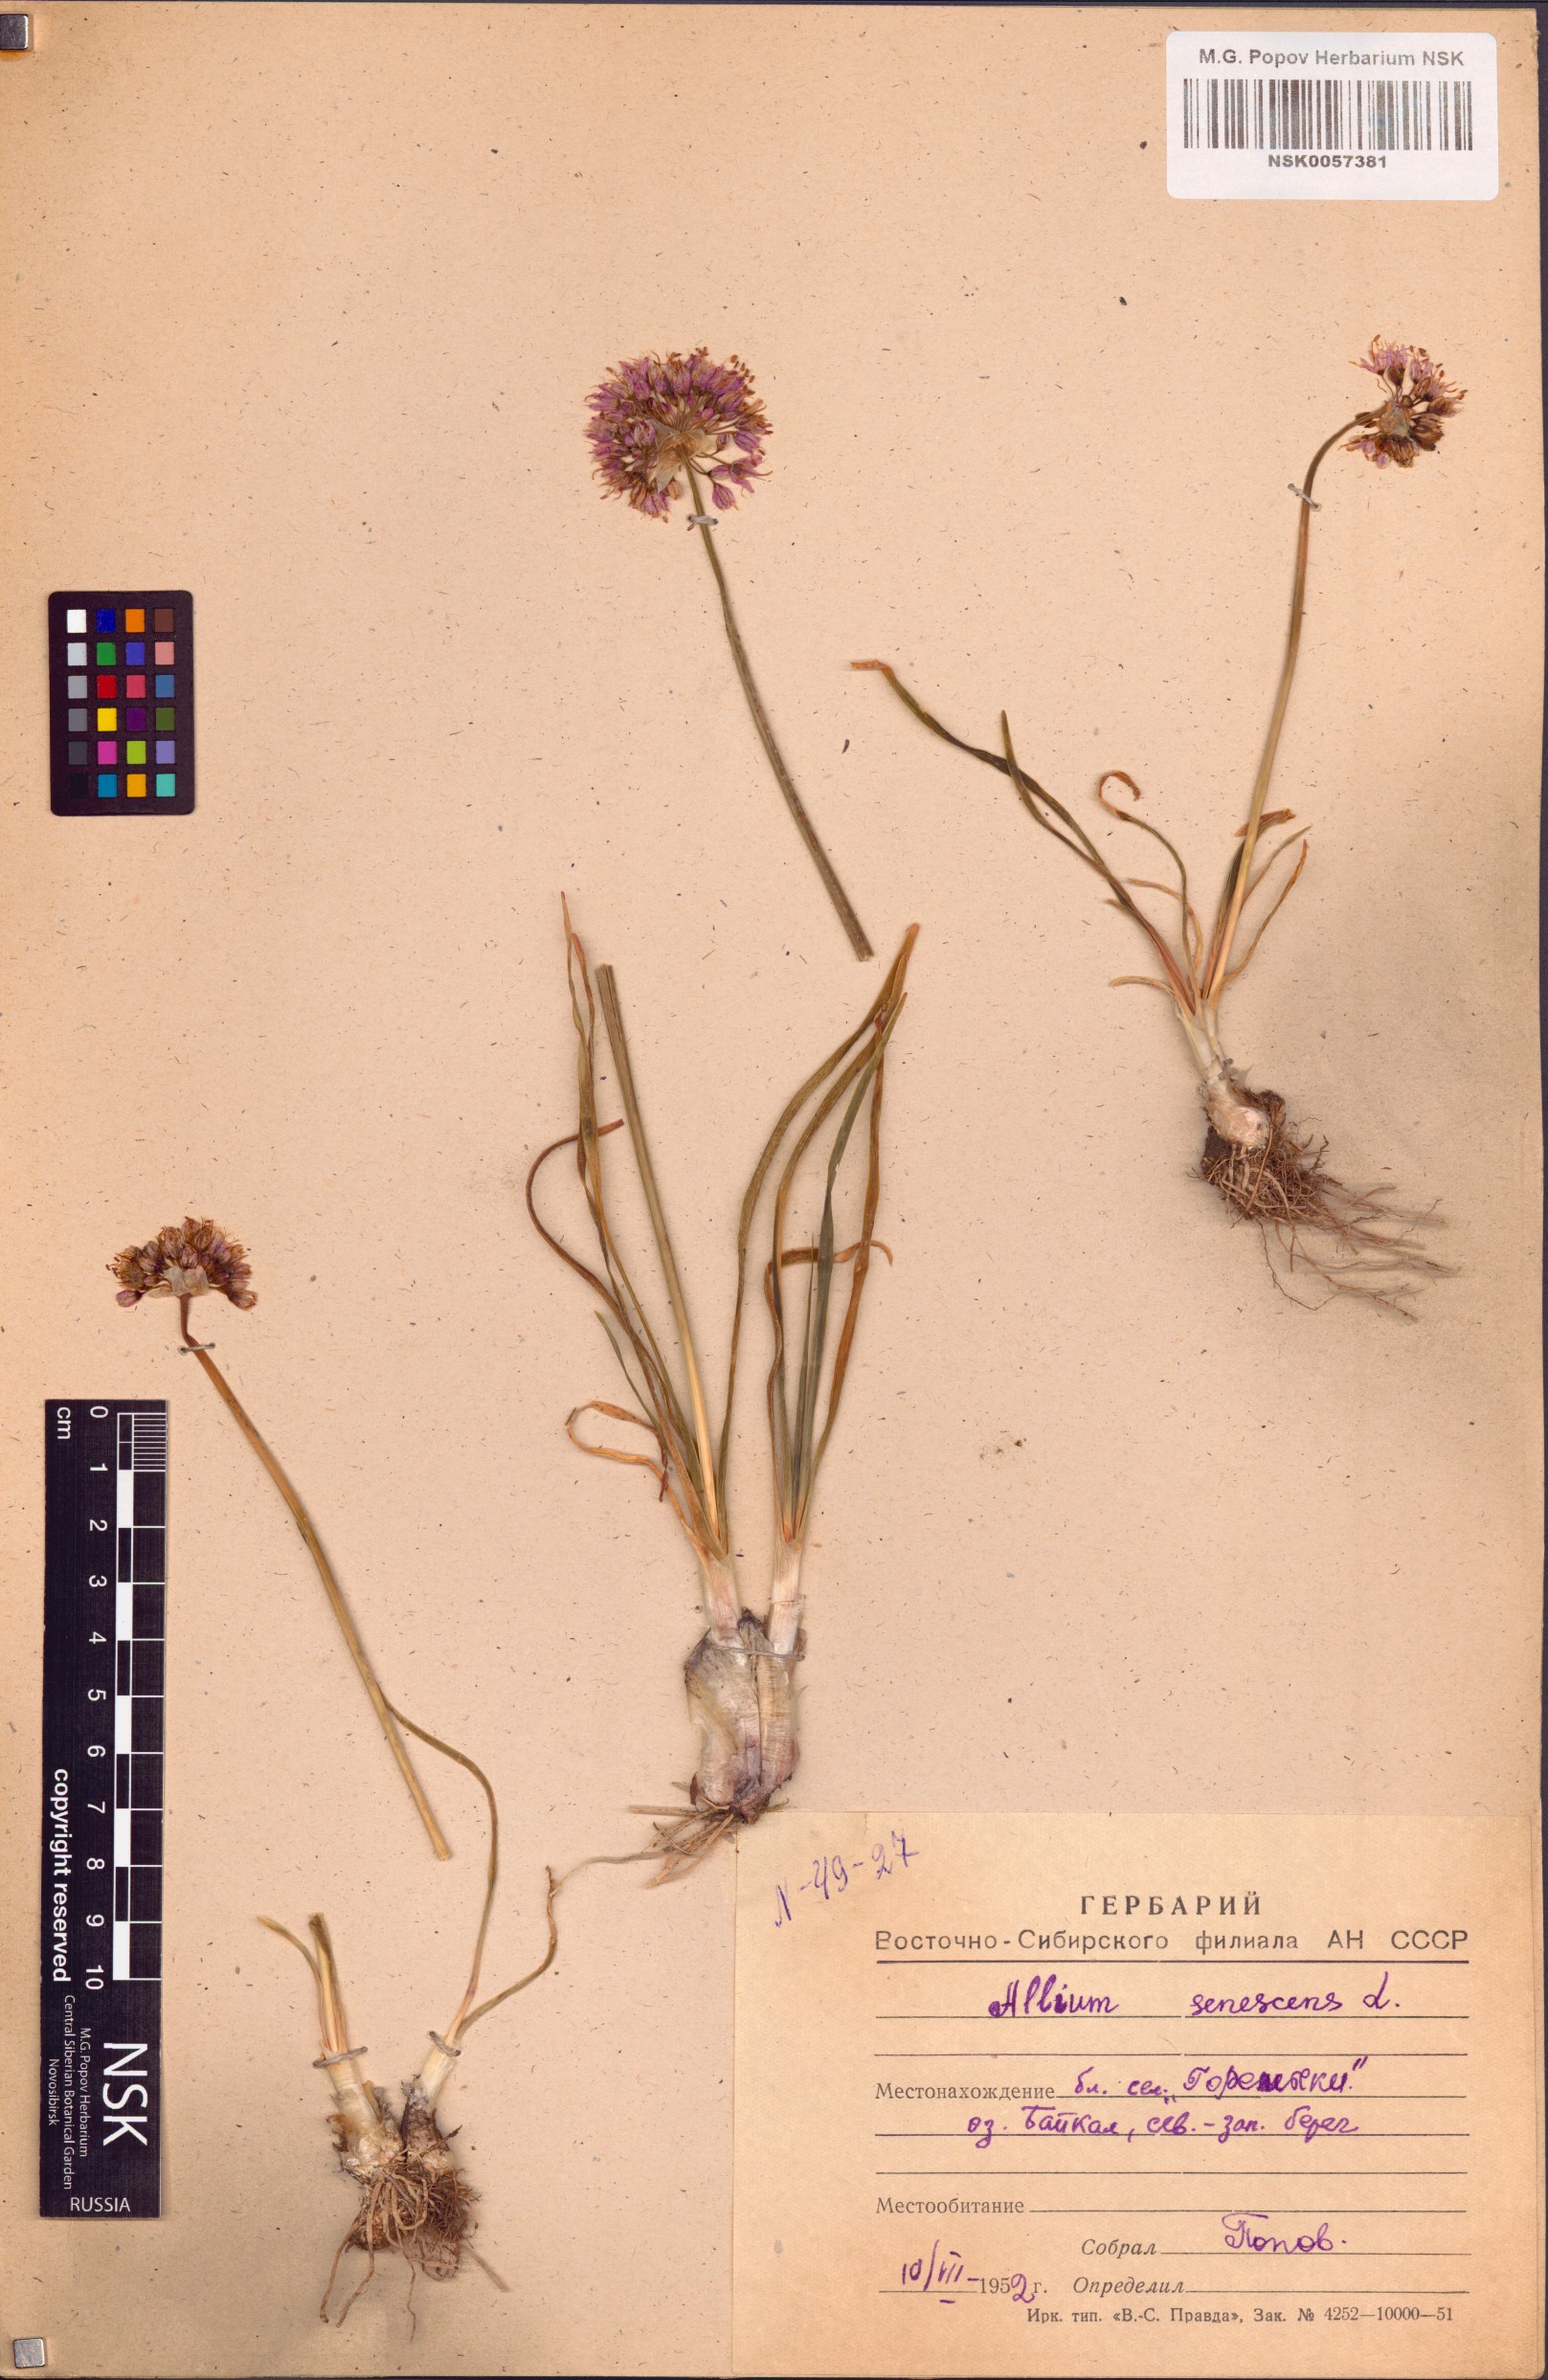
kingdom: Plantae
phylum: Tracheophyta
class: Liliopsida
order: Asparagales
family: Amaryllidaceae
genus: Allium
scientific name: Allium senescens
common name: German garlic
